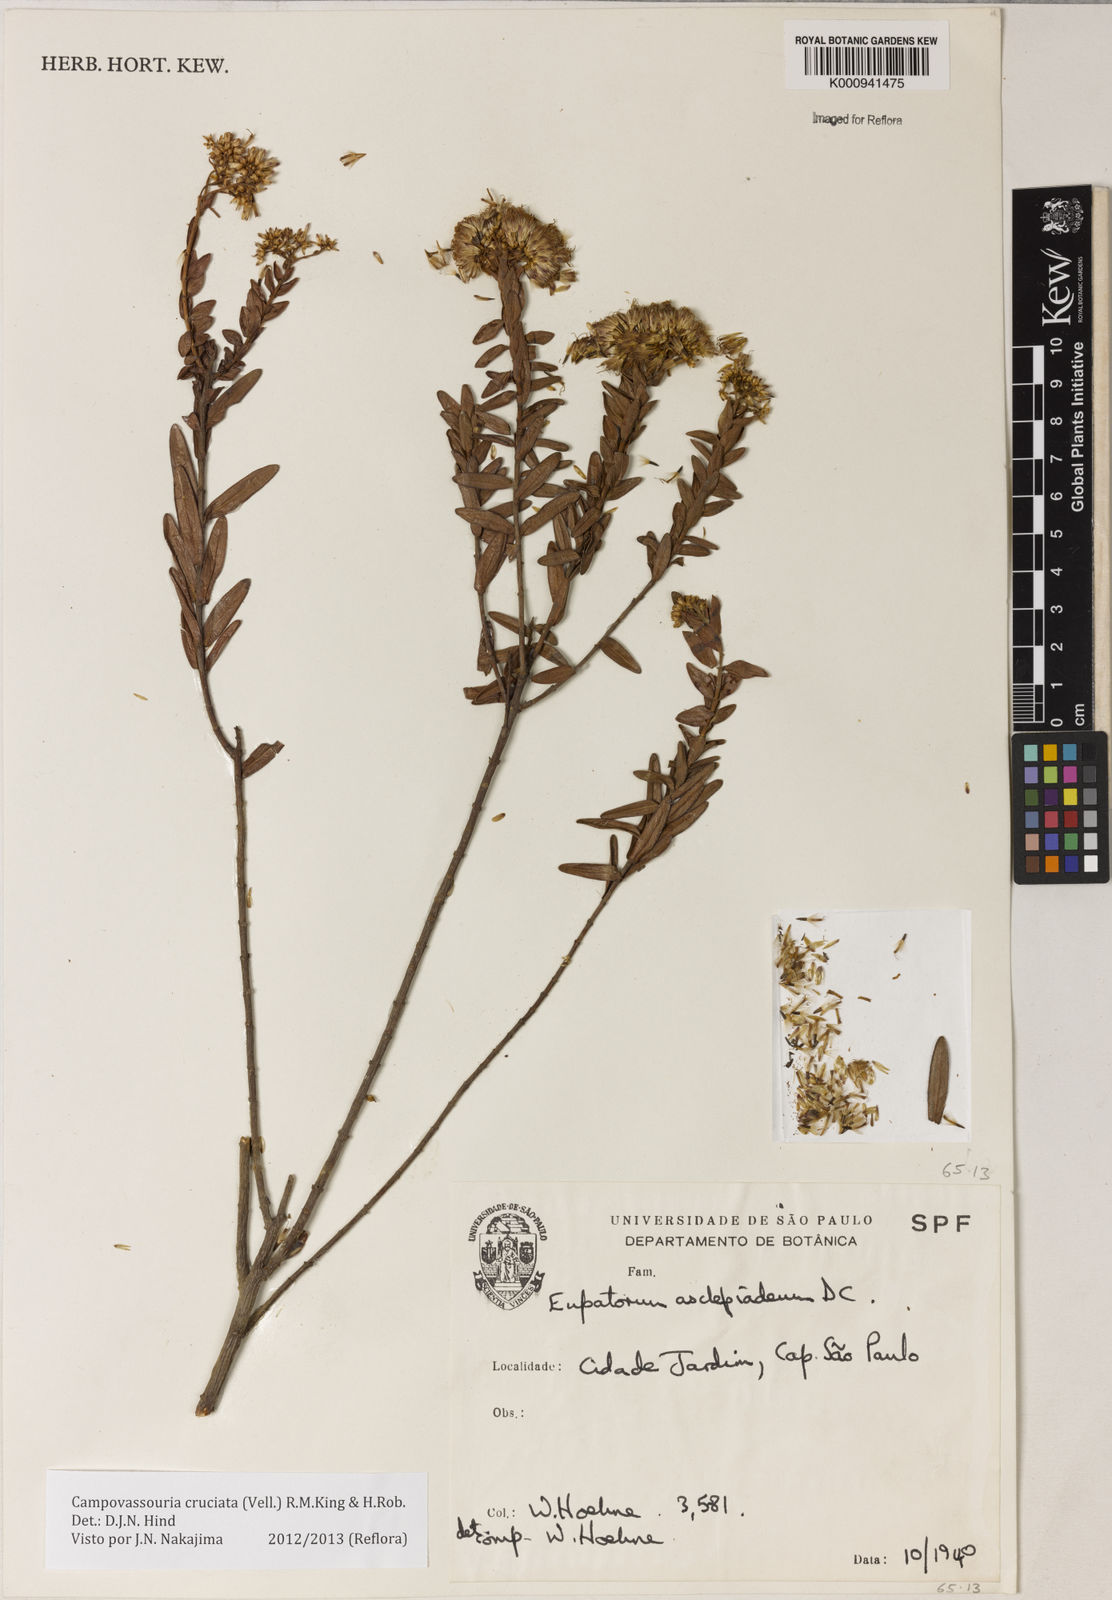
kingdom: Plantae
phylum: Tracheophyta
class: Magnoliopsida
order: Asterales
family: Asteraceae
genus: Campovassouria
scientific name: Campovassouria cruciata
